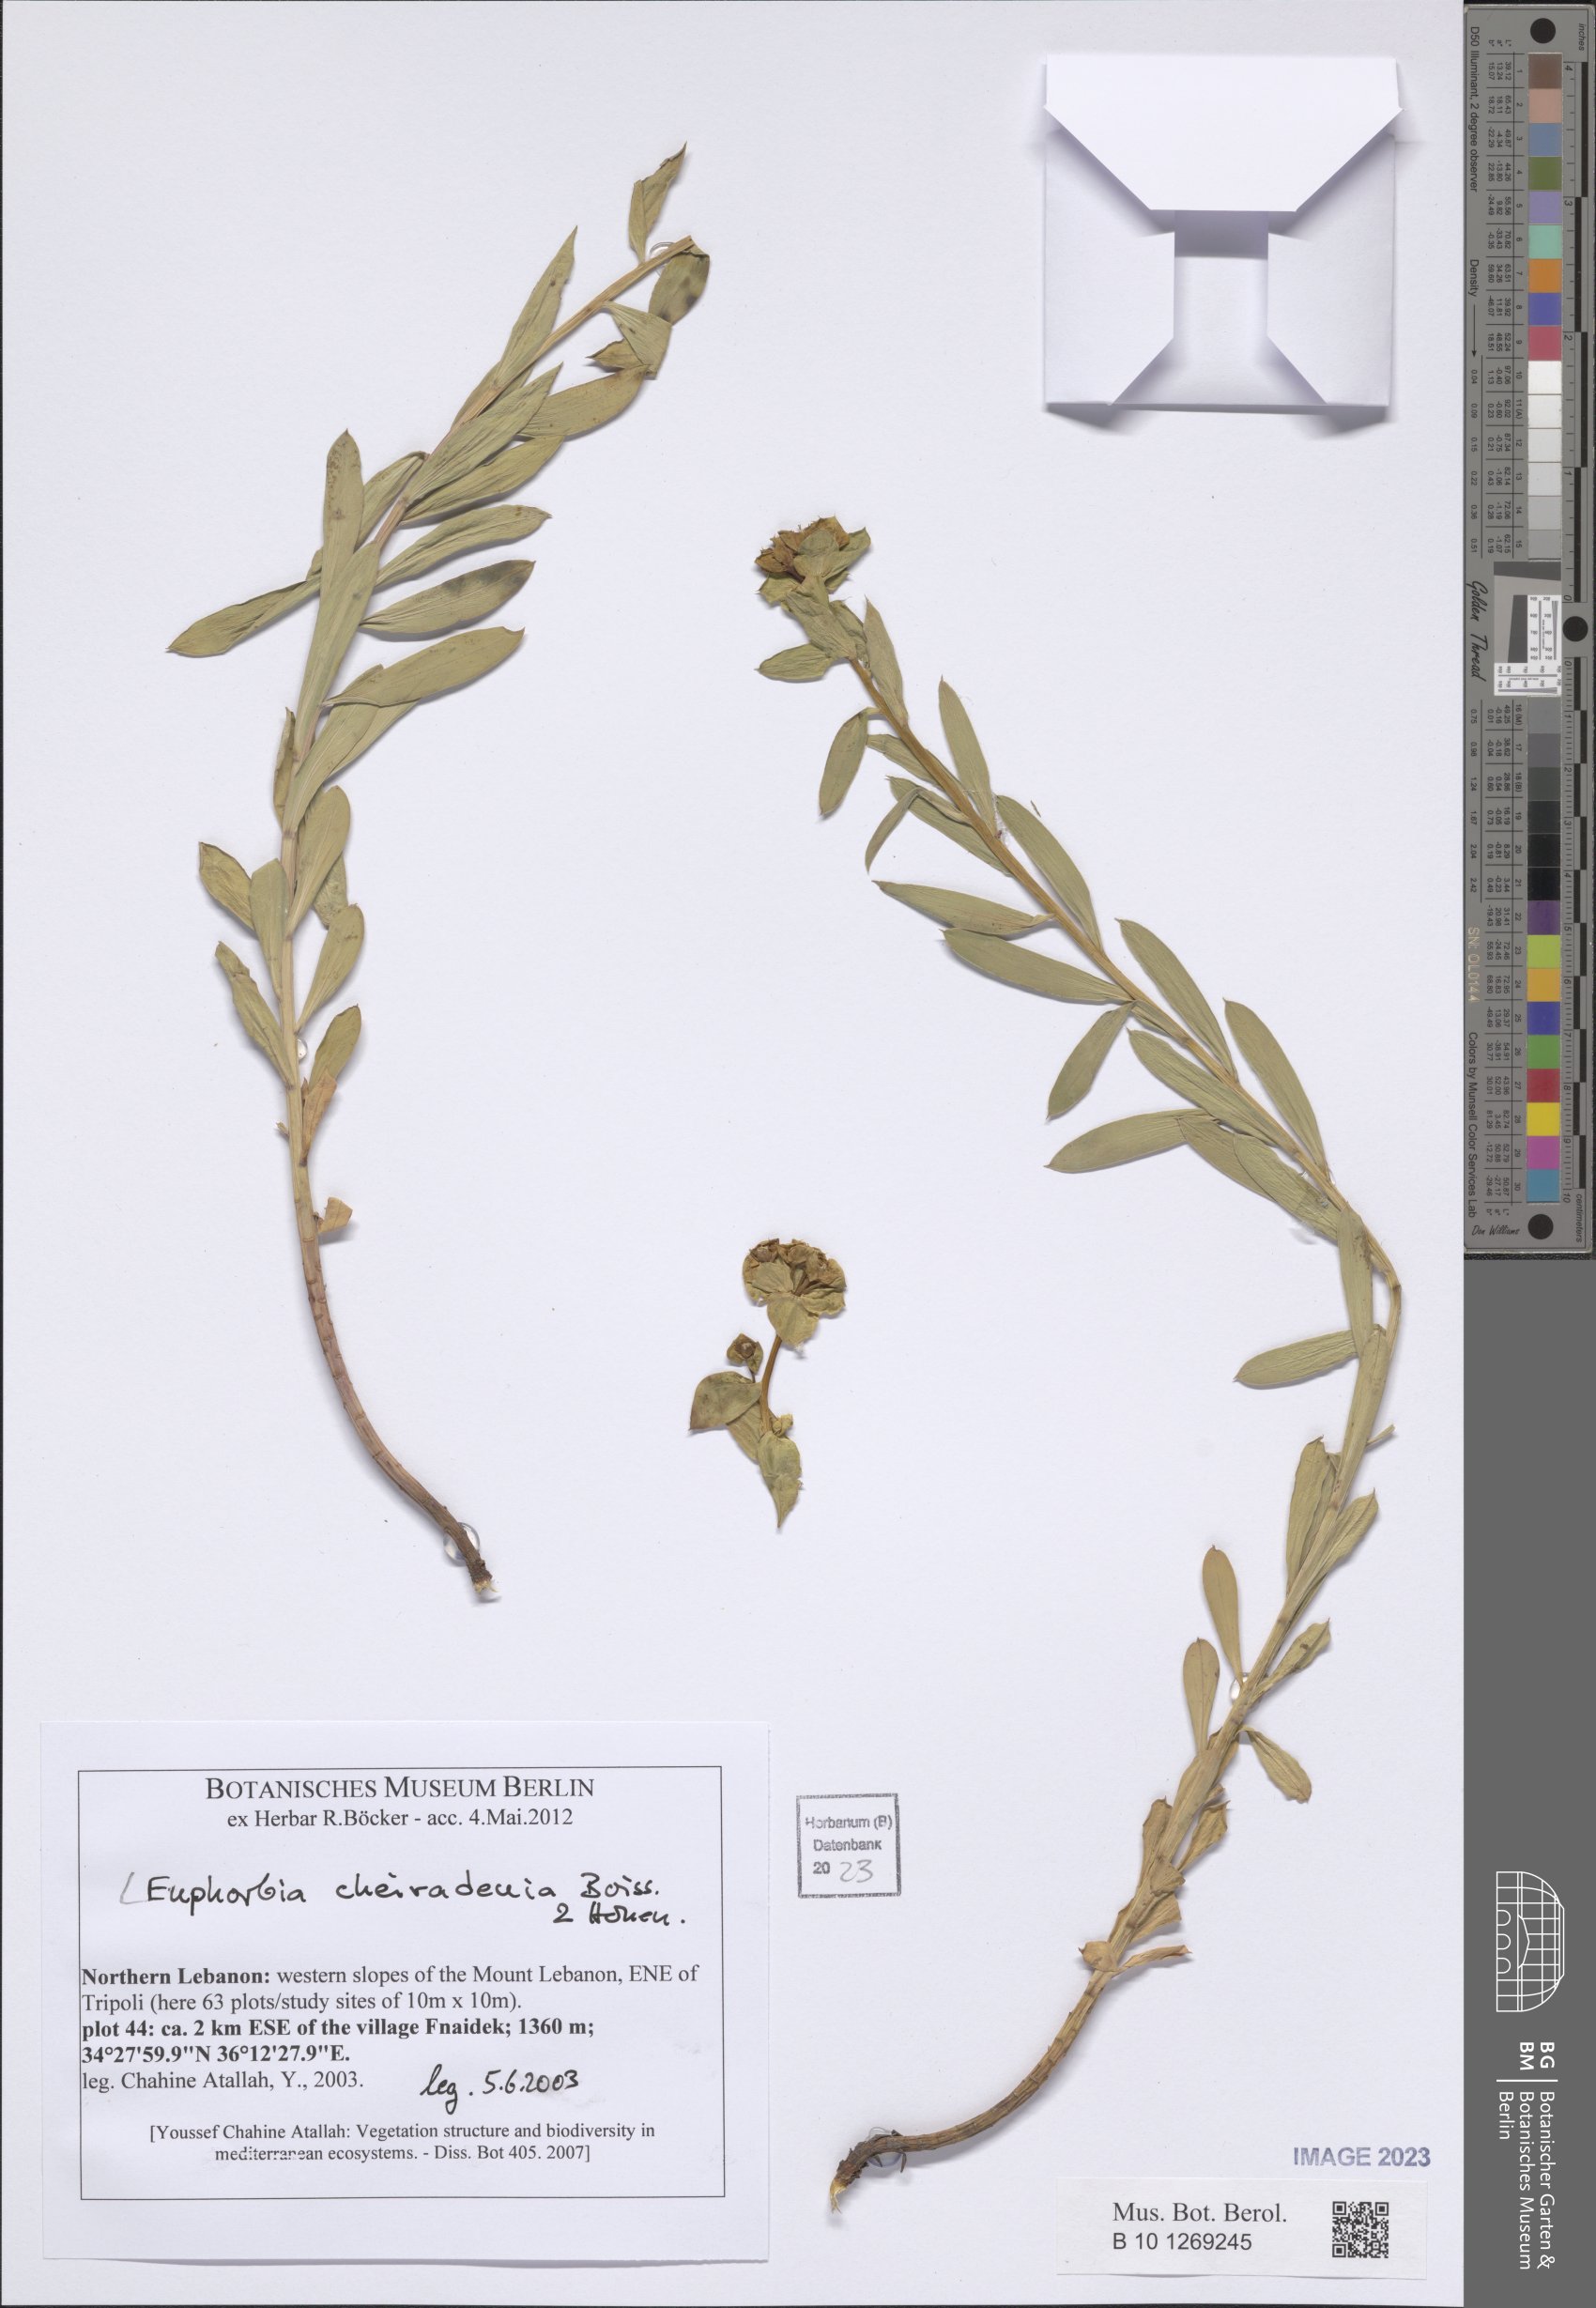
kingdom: Plantae
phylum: Tracheophyta
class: Magnoliopsida
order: Malpighiales
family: Euphorbiaceae
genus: Euphorbia
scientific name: Euphorbia cheiradenia
